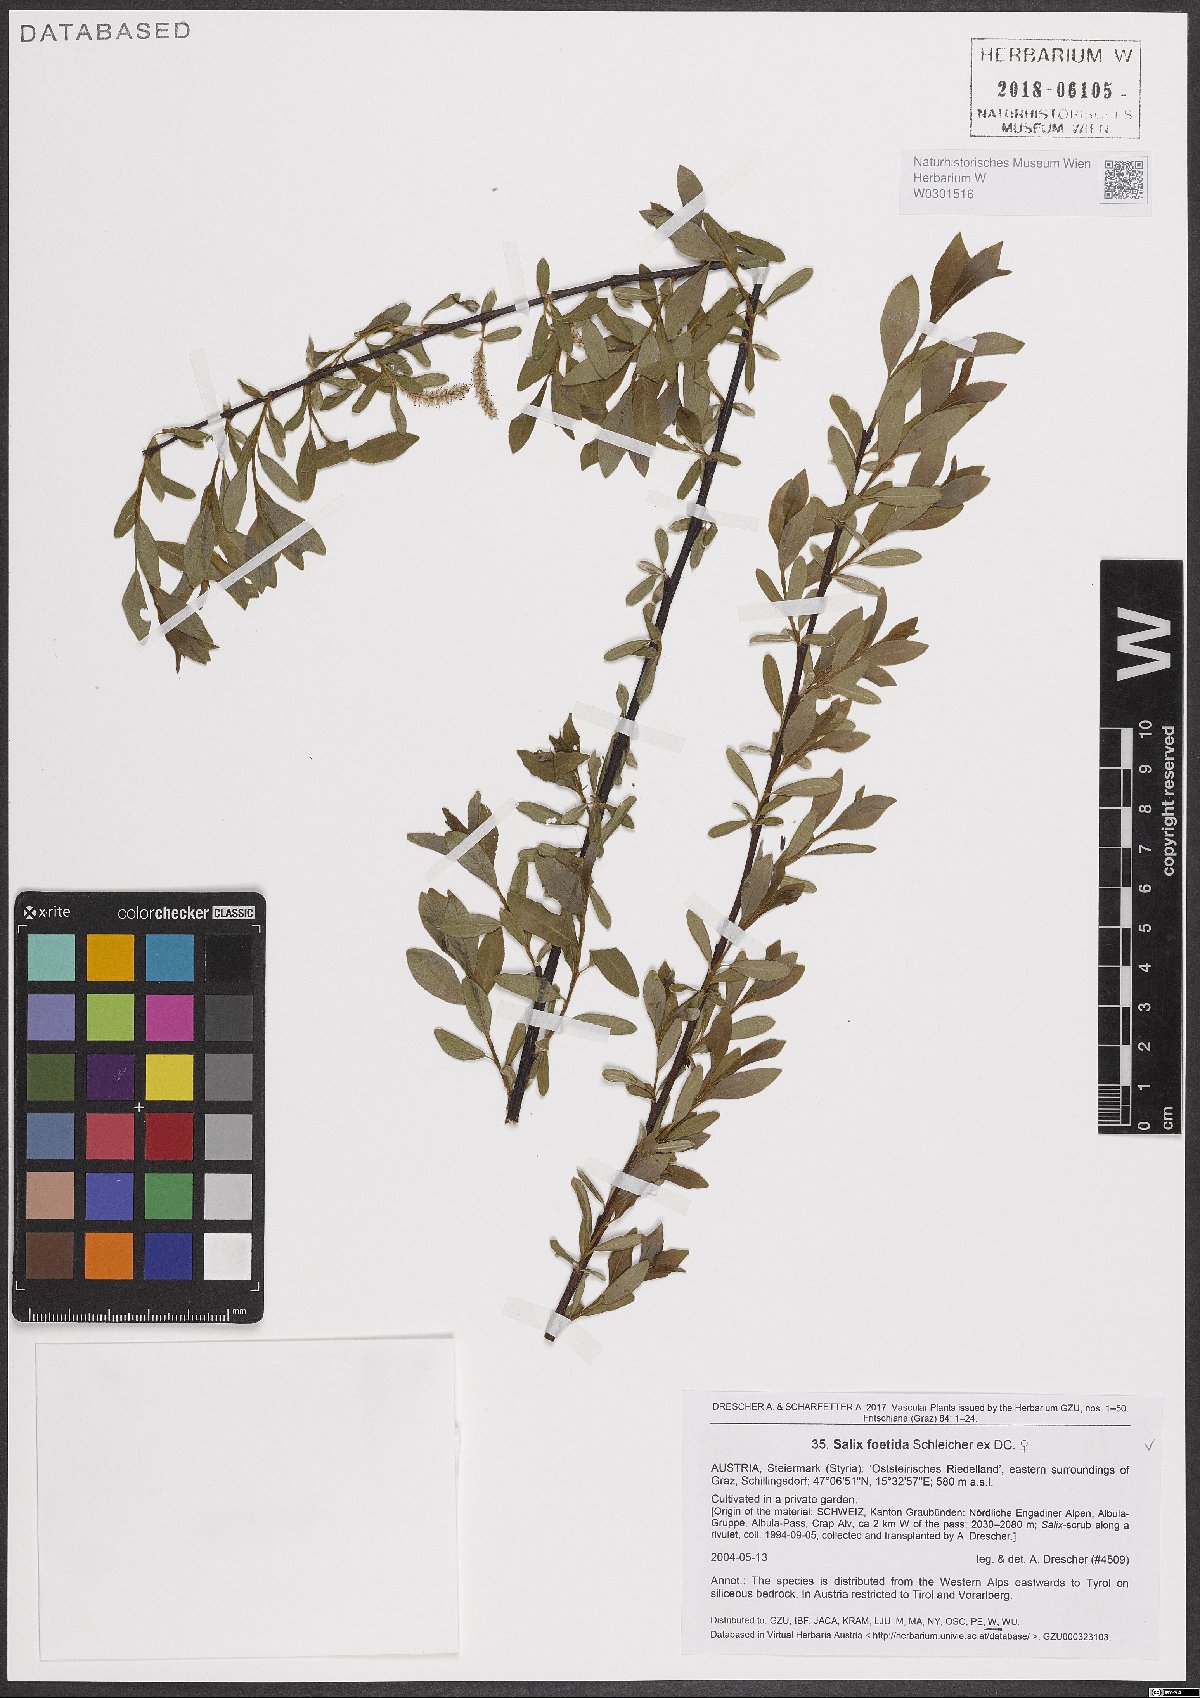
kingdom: Plantae
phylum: Tracheophyta
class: Magnoliopsida
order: Malpighiales
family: Salicaceae
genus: Salix
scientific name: Salix foetida
